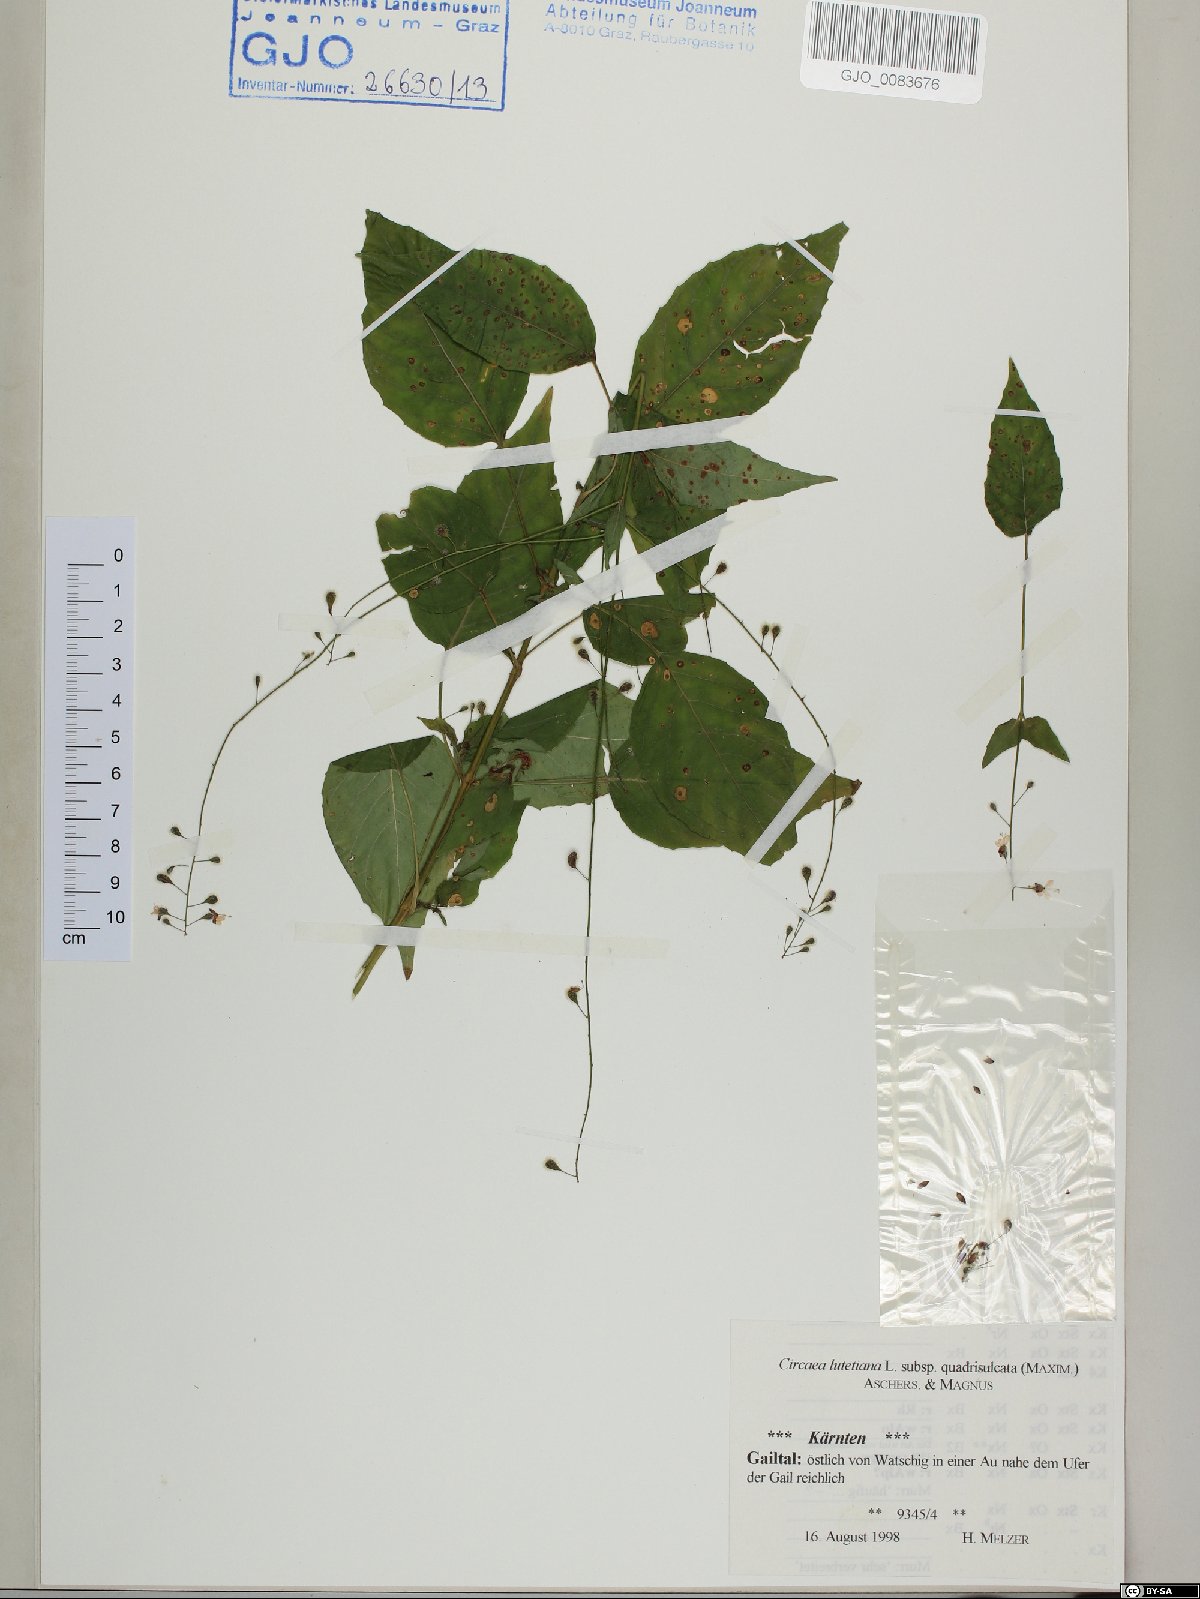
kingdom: Plantae
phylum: Tracheophyta
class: Magnoliopsida
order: Myrtales
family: Onagraceae
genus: Circaea
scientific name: Circaea canadensis
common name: Broad-leaved enchanter's nightshade
